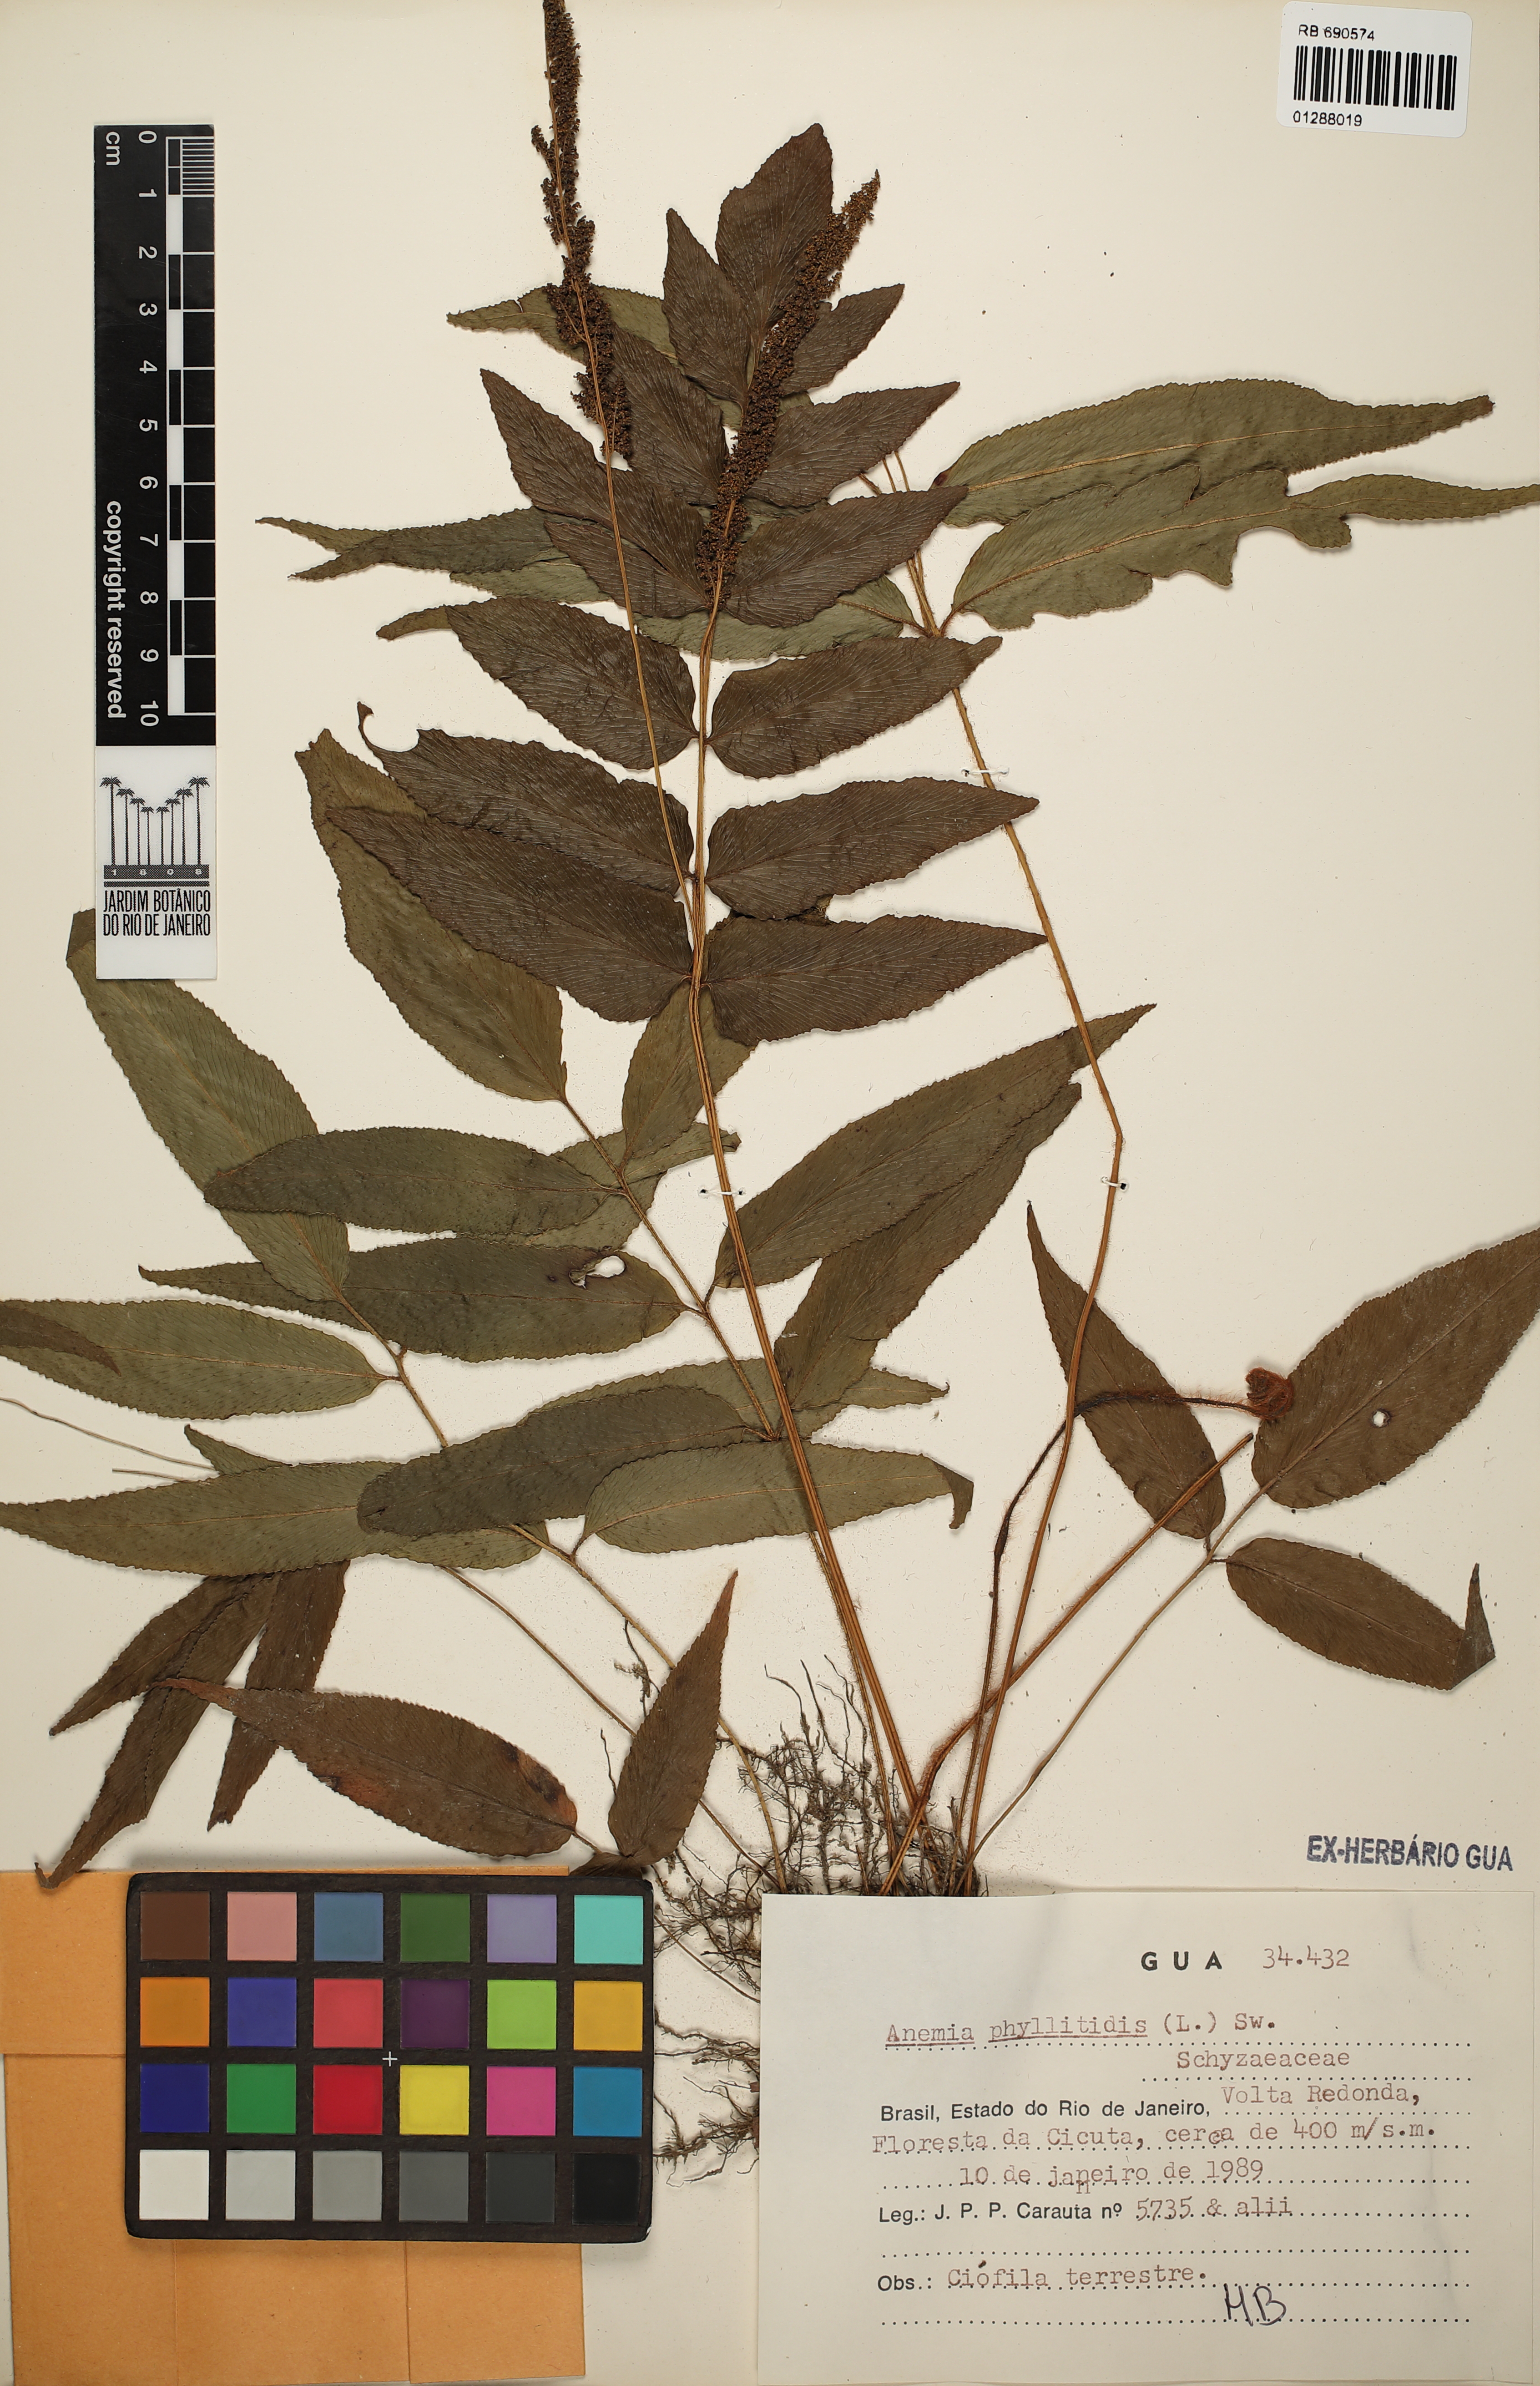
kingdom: Plantae
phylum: Tracheophyta
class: Polypodiopsida
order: Schizaeales
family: Anemiaceae
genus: Anemia
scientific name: Anemia phyllitidis
